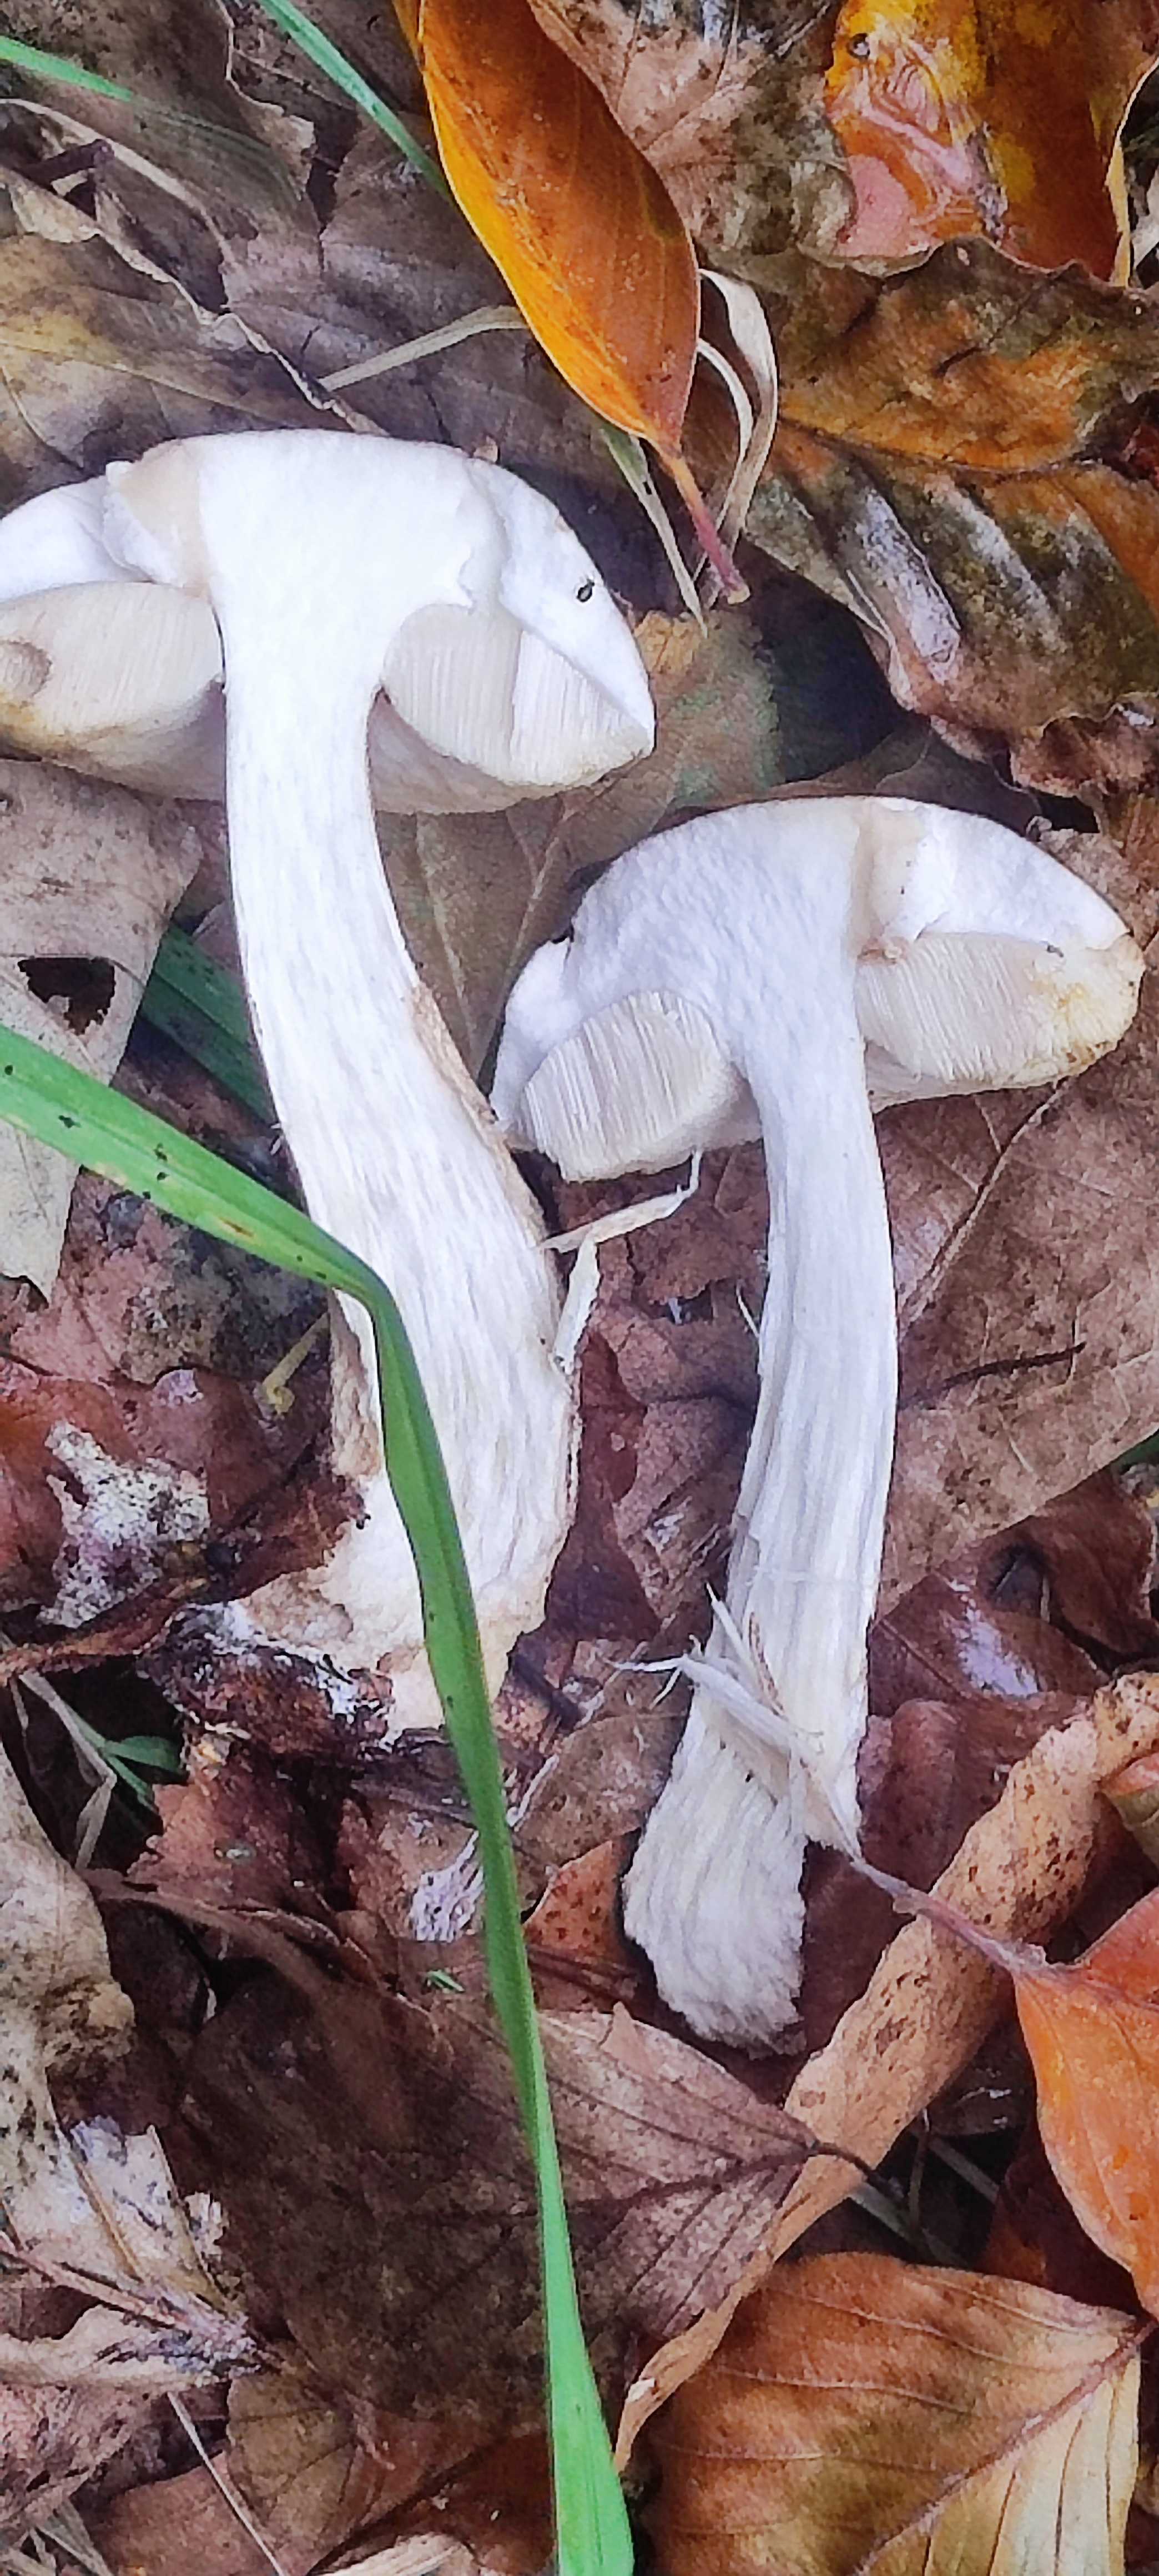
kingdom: Fungi
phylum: Basidiomycota
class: Agaricomycetes
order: Boletales
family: Boletaceae
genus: Leccinum
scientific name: Leccinum scabrum
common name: brun skælrørhat
